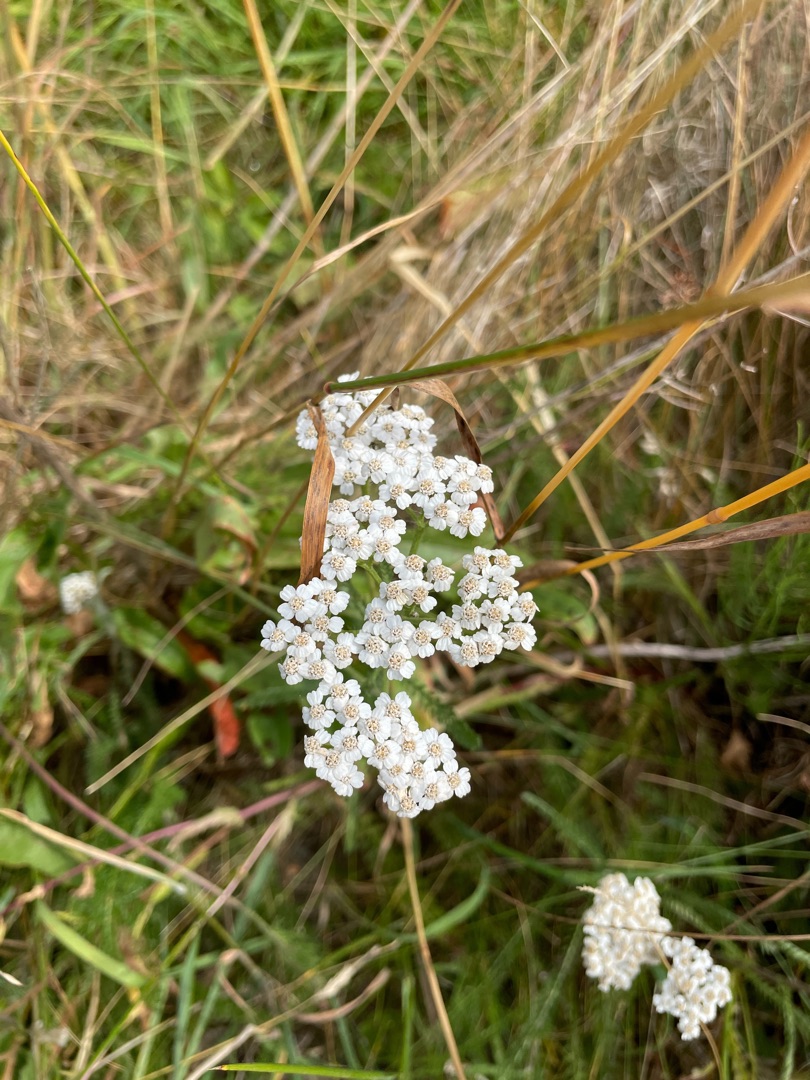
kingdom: Plantae
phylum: Tracheophyta
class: Magnoliopsida
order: Asterales
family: Asteraceae
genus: Achillea
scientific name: Achillea millefolium
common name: Almindelig røllike
